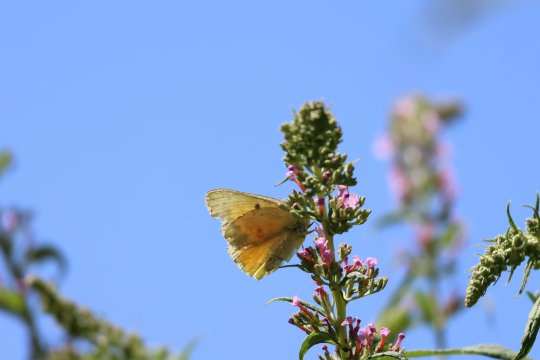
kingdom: Animalia
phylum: Arthropoda
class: Insecta
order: Lepidoptera
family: Pieridae
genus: Colias
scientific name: Colias philodice
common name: Clouded Sulphur
